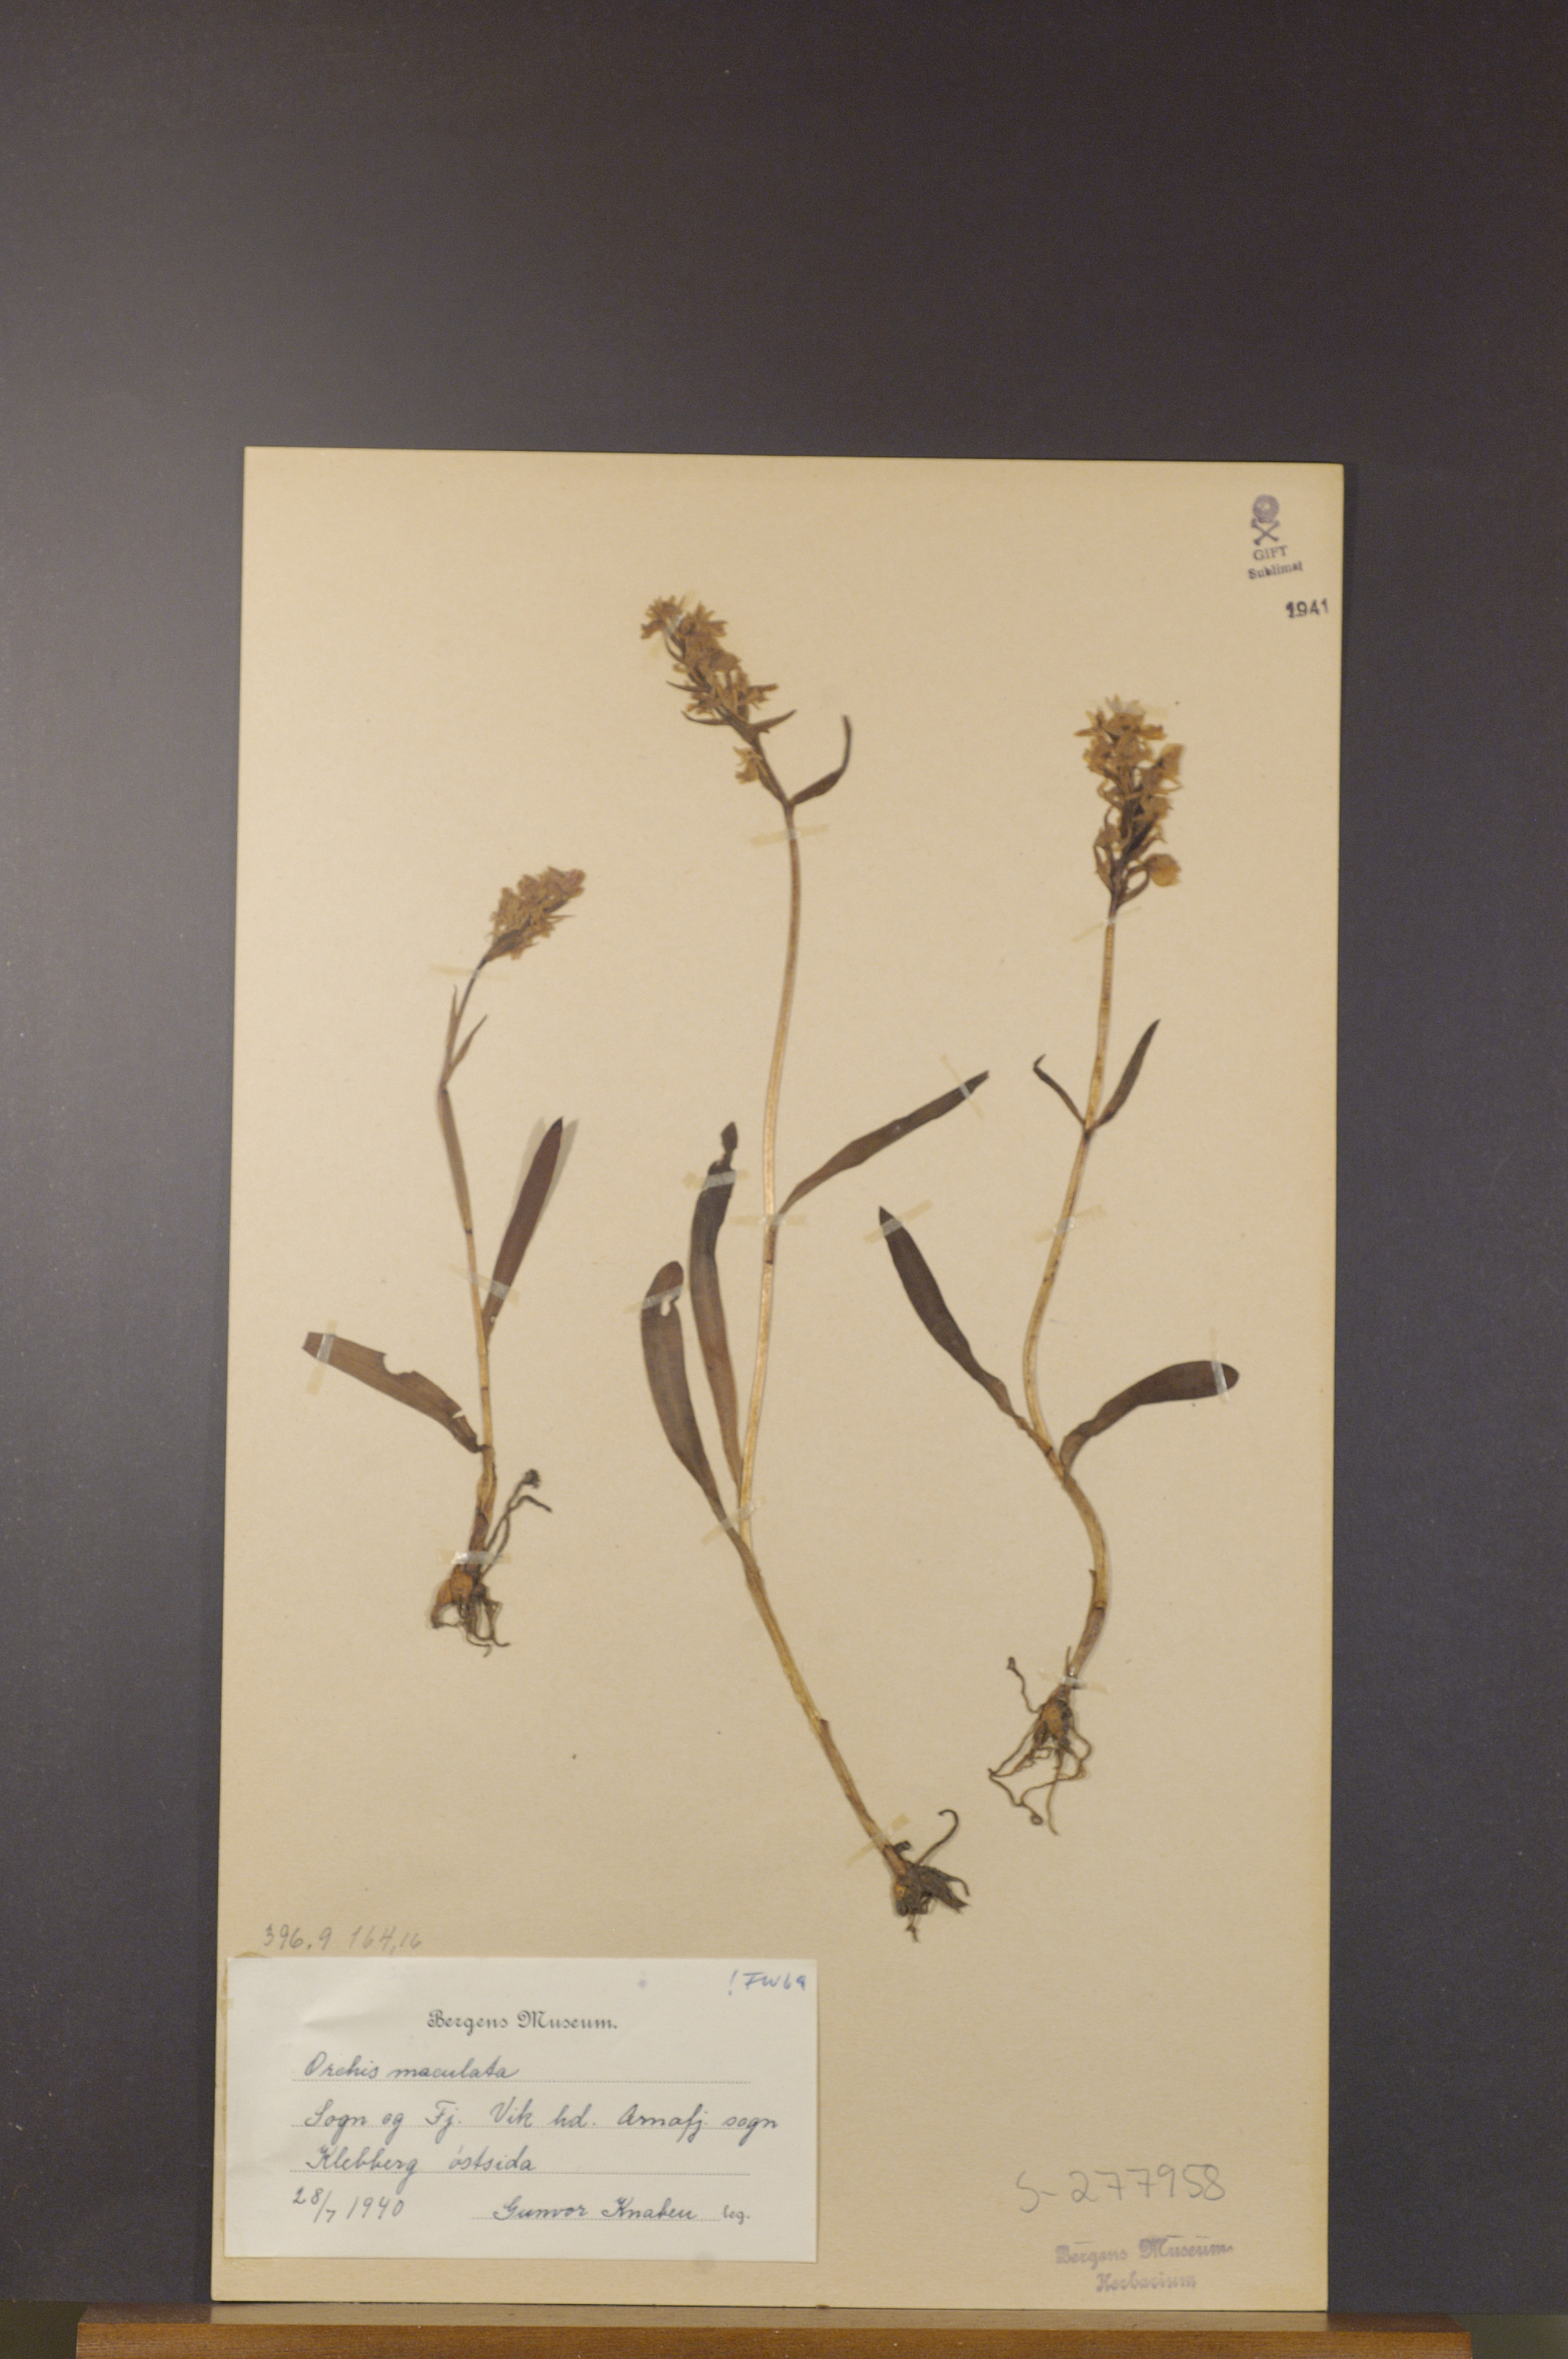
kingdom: Plantae
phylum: Tracheophyta
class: Liliopsida
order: Asparagales
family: Orchidaceae
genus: Dactylorhiza
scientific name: Dactylorhiza maculata
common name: Heath spotted-orchid
